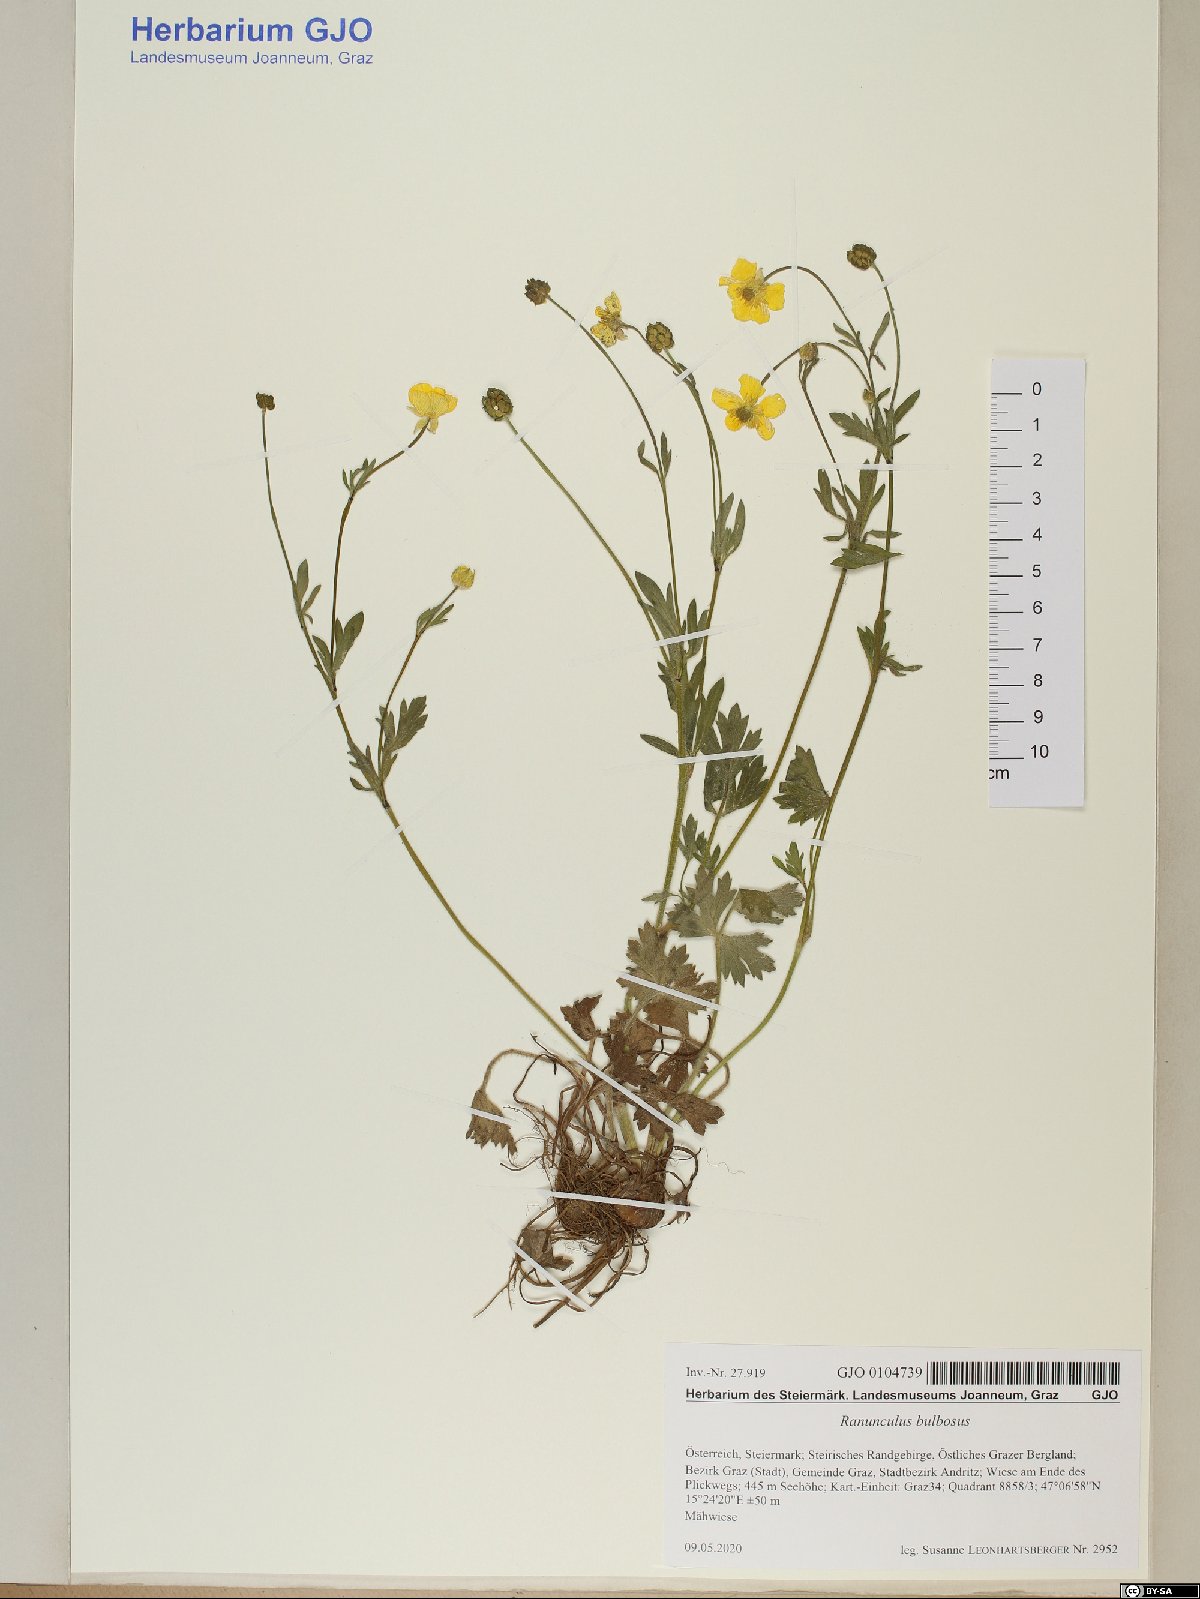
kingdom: Plantae
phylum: Tracheophyta
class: Magnoliopsida
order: Ranunculales
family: Ranunculaceae
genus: Ranunculus
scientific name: Ranunculus bulbosus
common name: Bulbous buttercup
